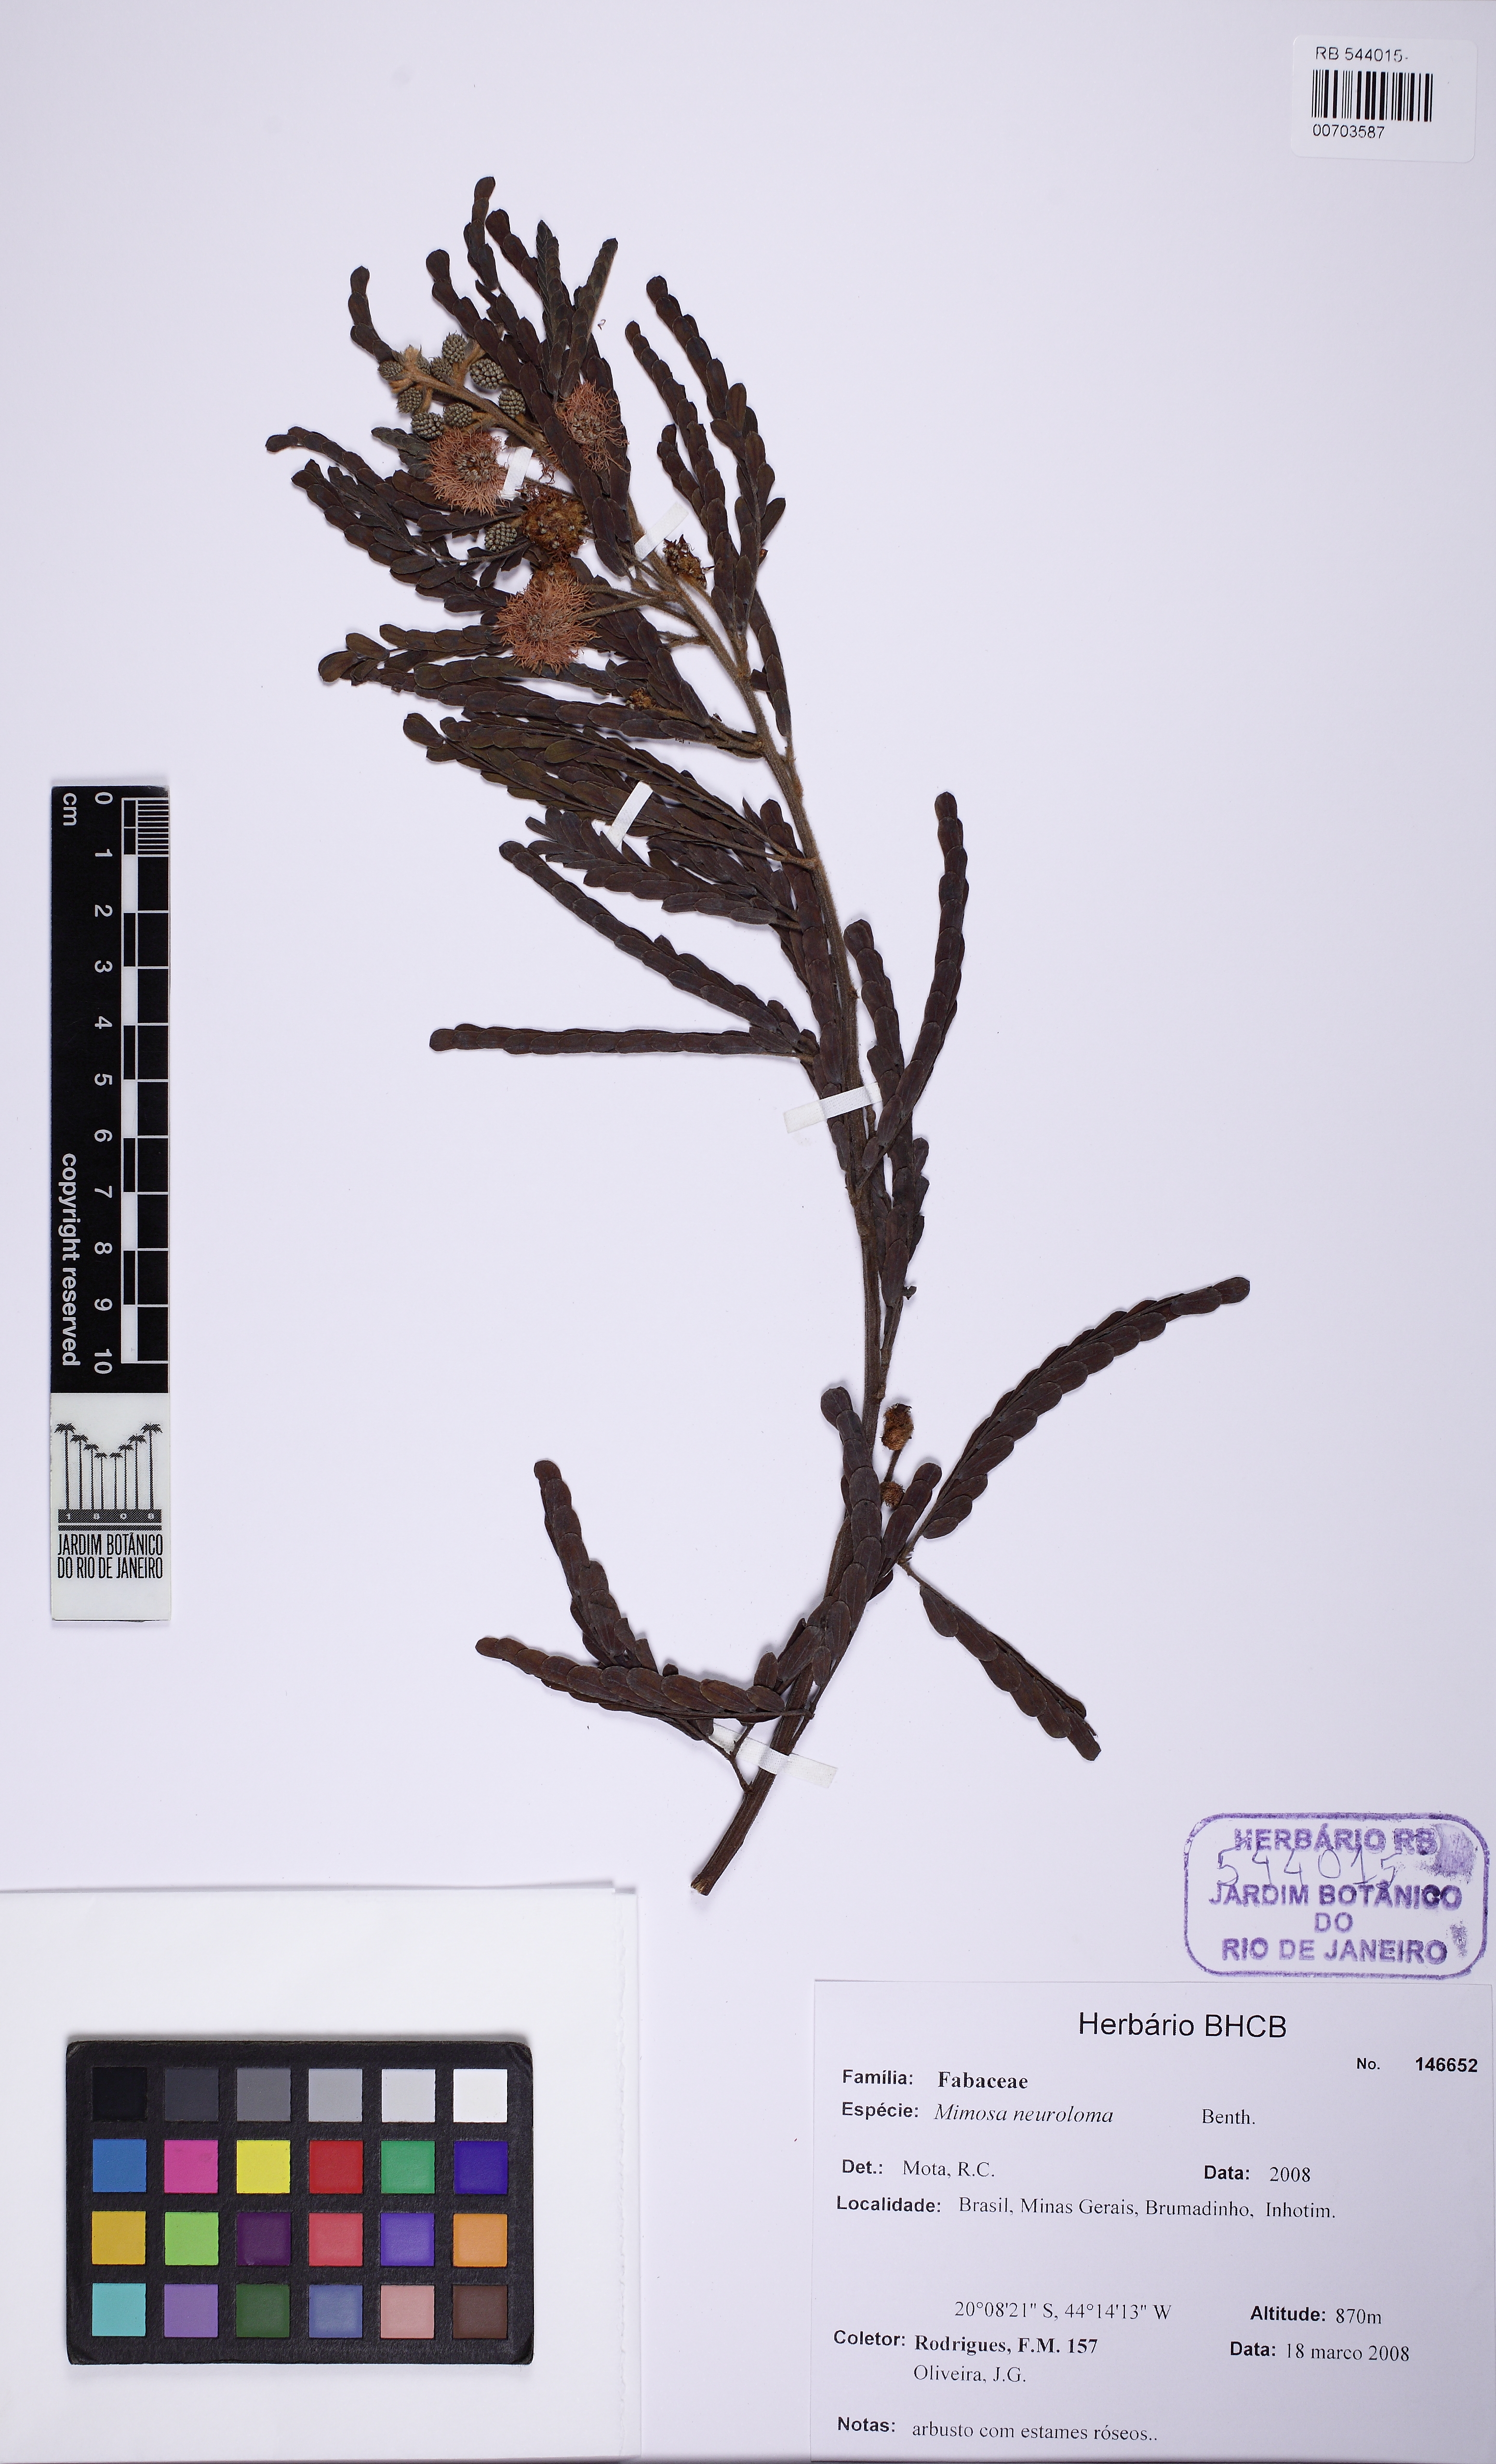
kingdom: Plantae
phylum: Tracheophyta
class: Magnoliopsida
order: Fabales
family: Fabaceae
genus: Mimosa
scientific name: Mimosa distans
